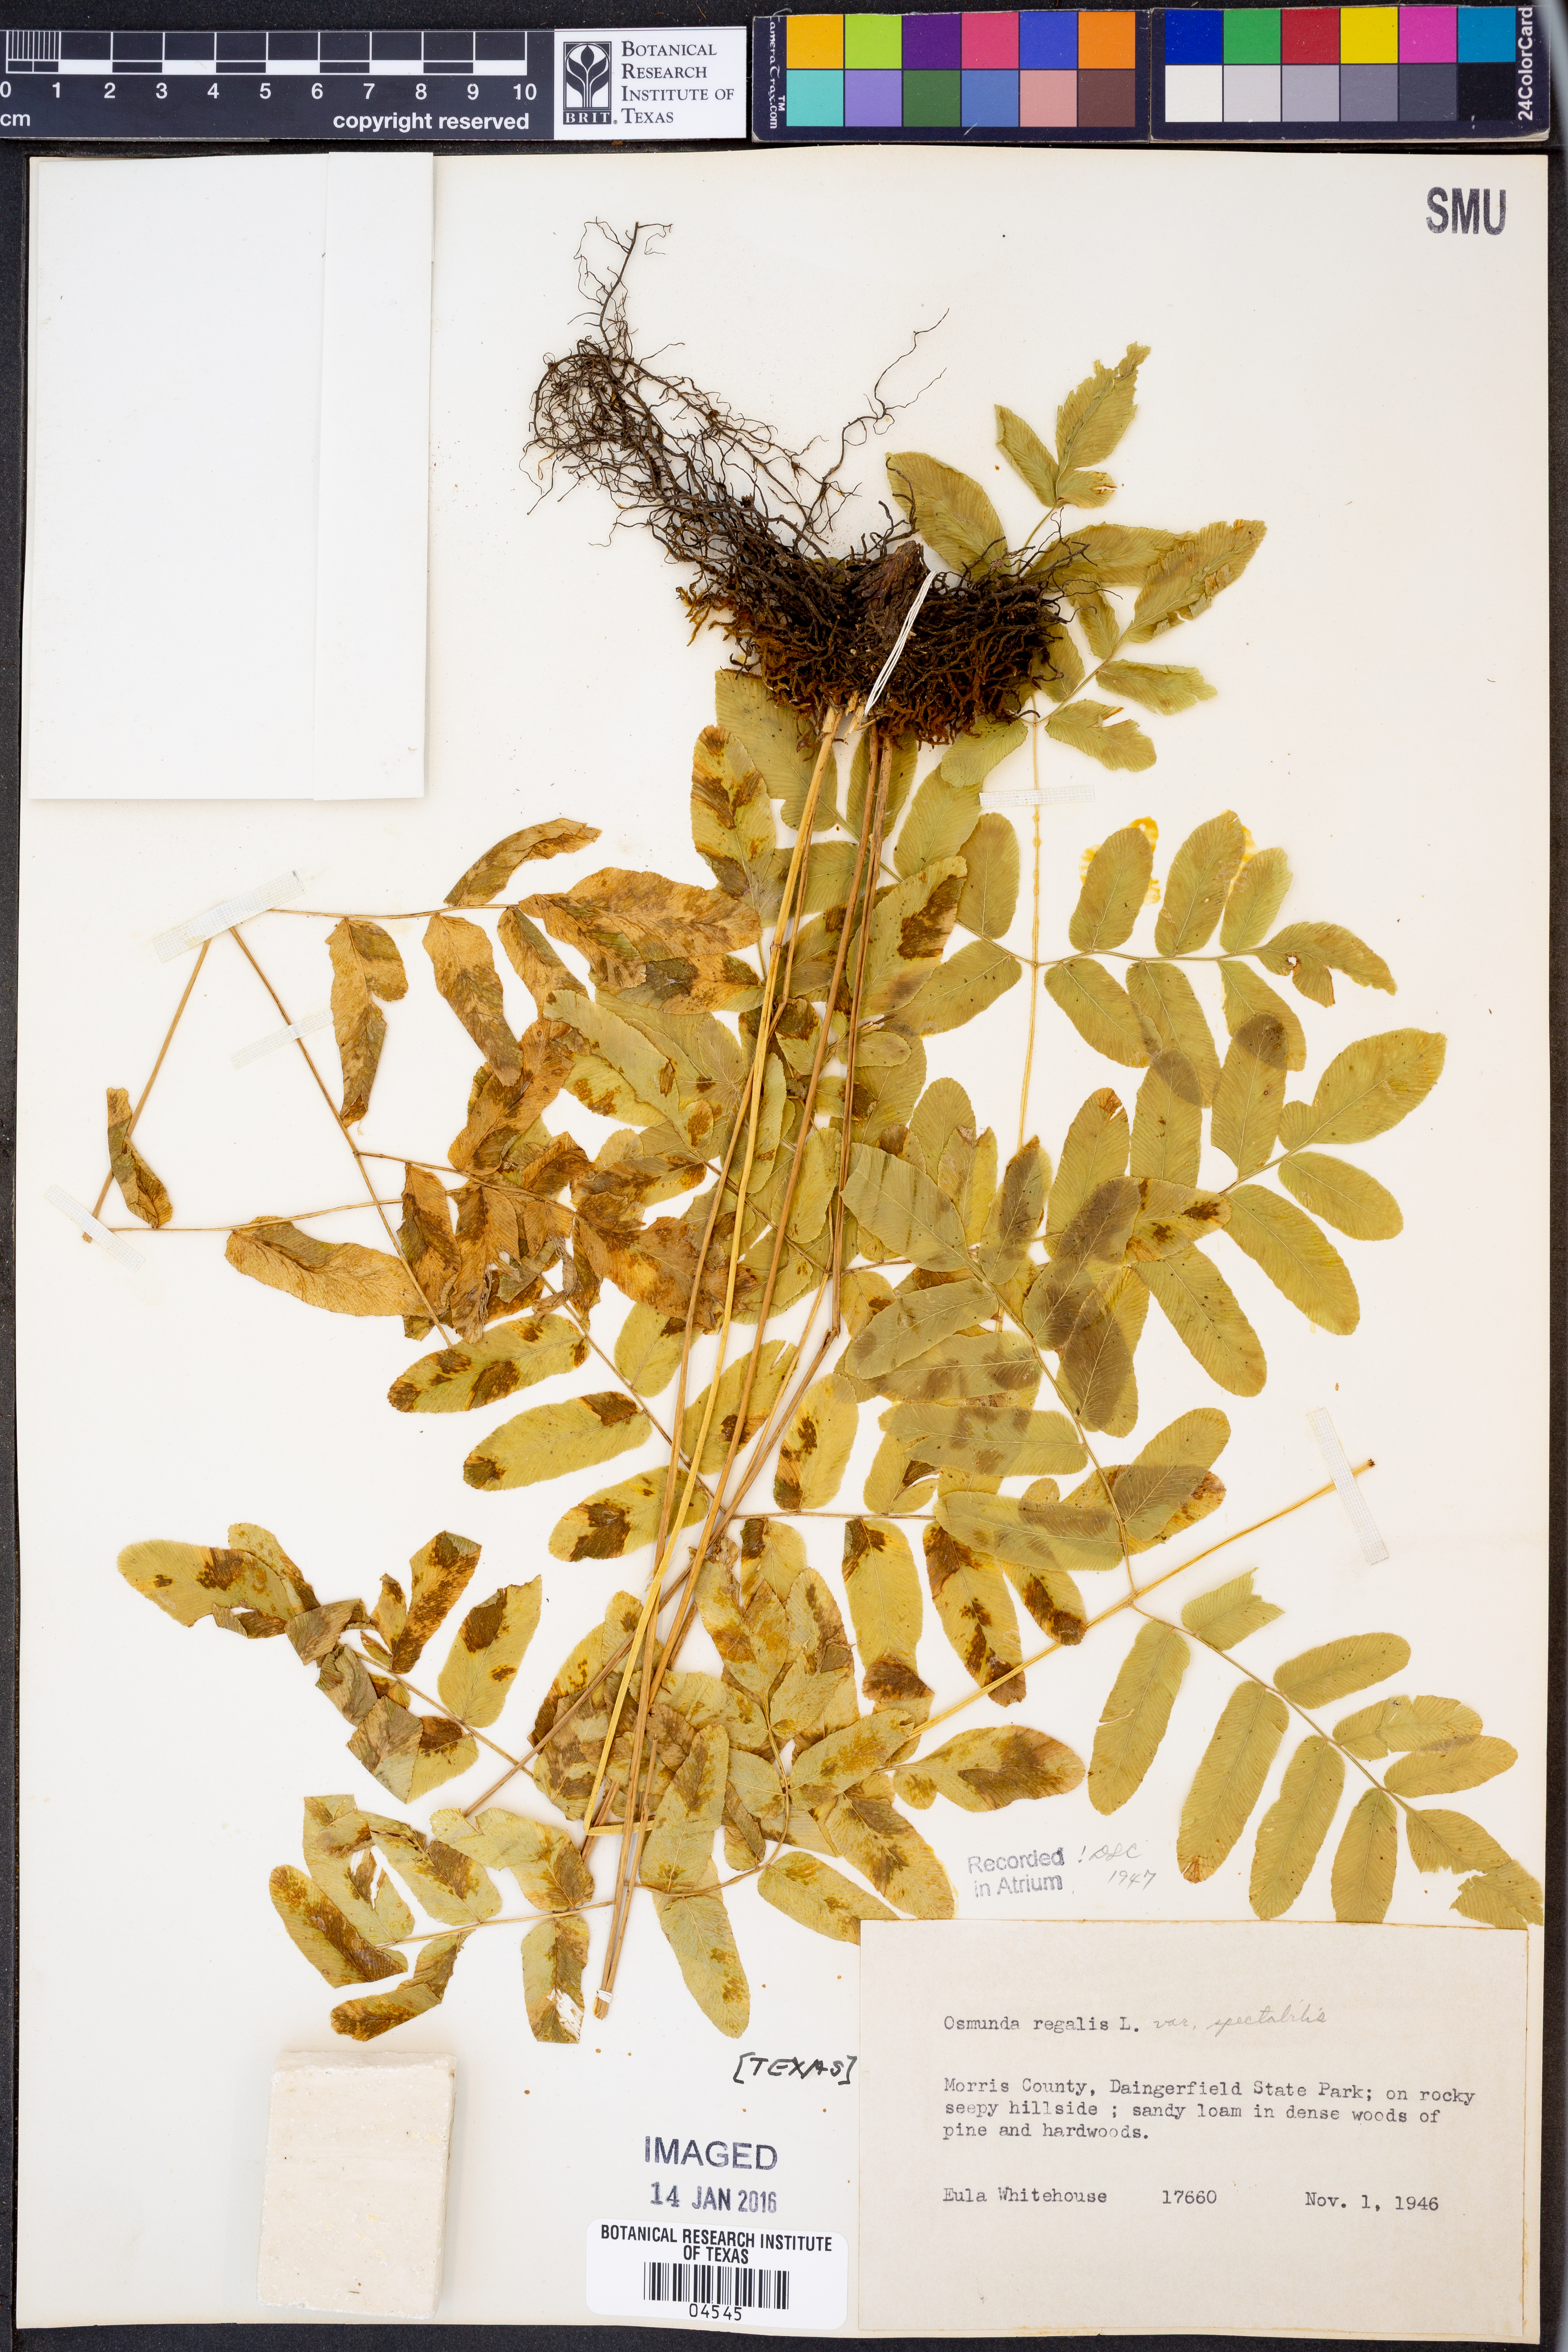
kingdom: Plantae
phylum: Tracheophyta
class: Polypodiopsida
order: Osmundales
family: Osmundaceae
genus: Osmunda
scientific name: Osmunda spectabilis
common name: American royal fern
